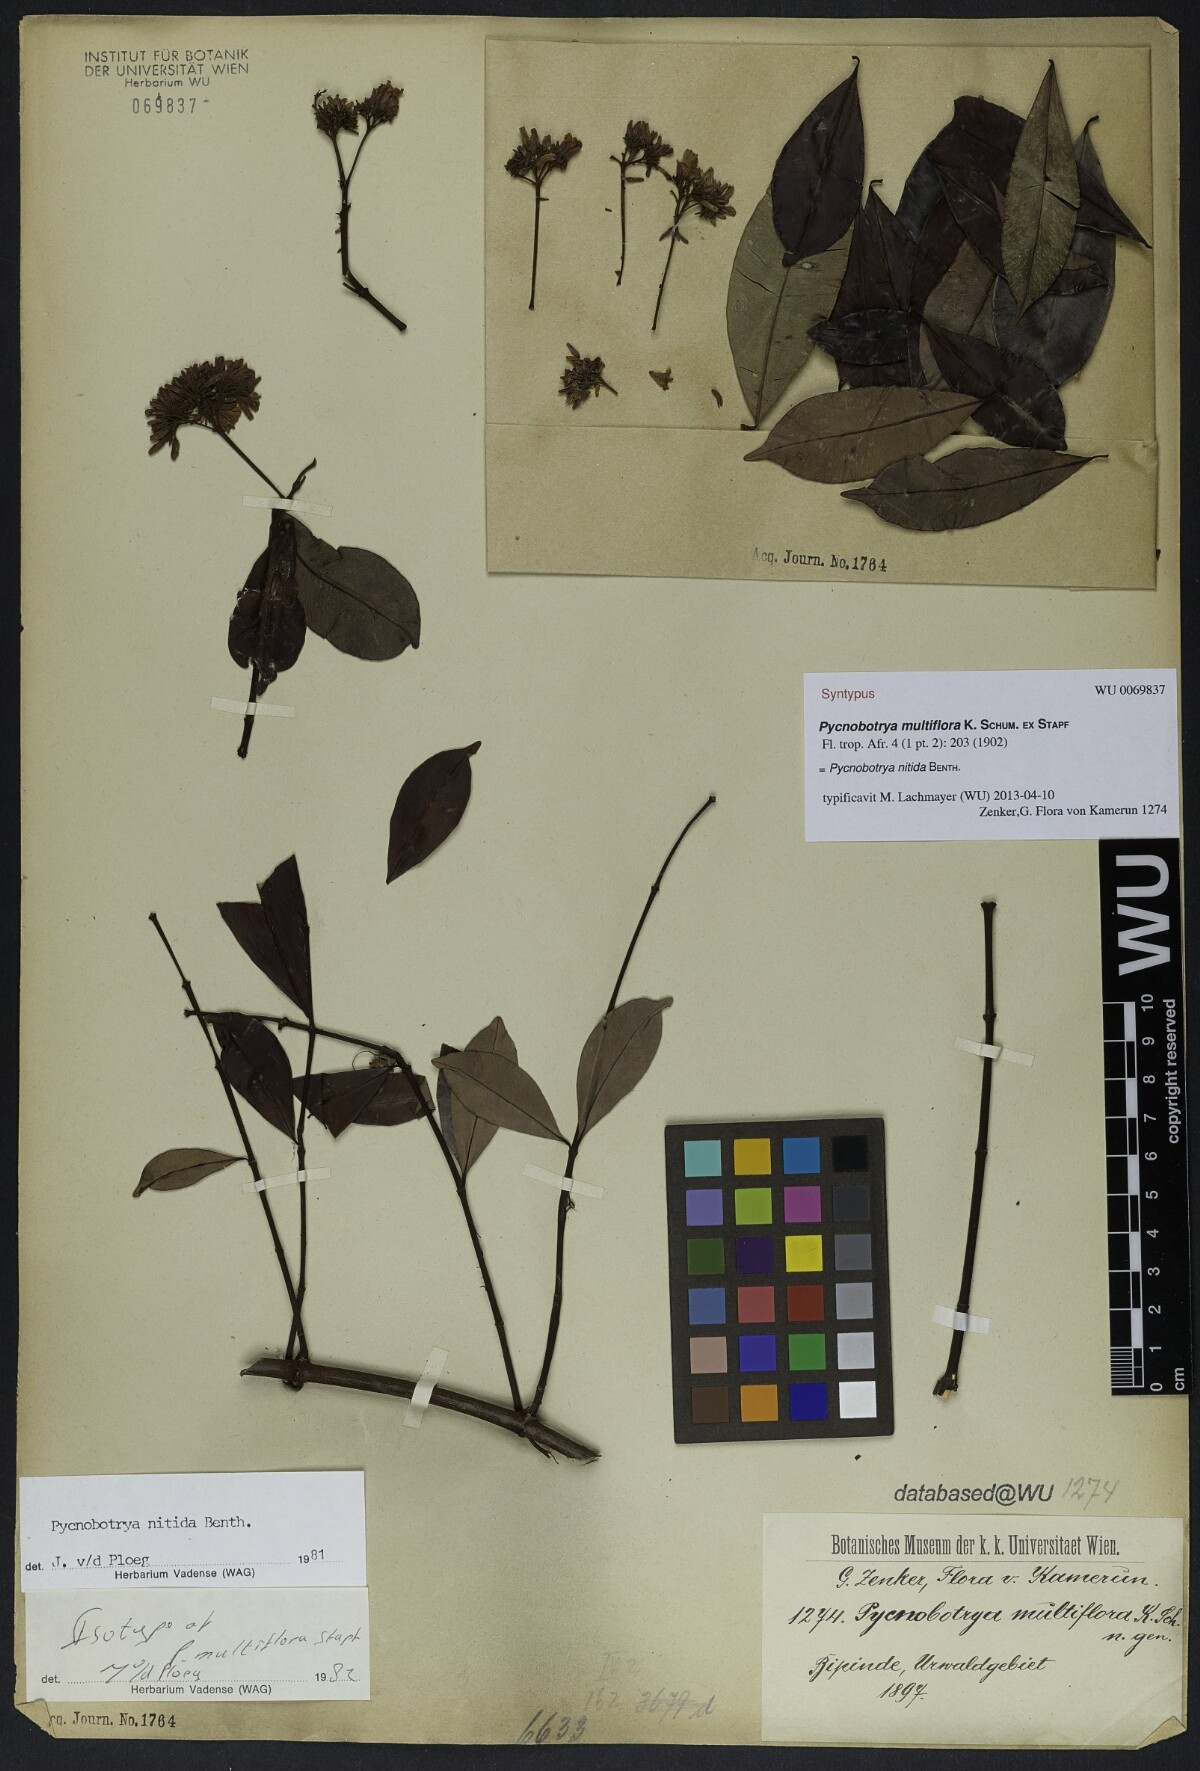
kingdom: Plantae
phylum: Tracheophyta
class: Magnoliopsida
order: Gentianales
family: Apocynaceae
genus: Pycnobotrya
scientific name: Pycnobotrya nitida
